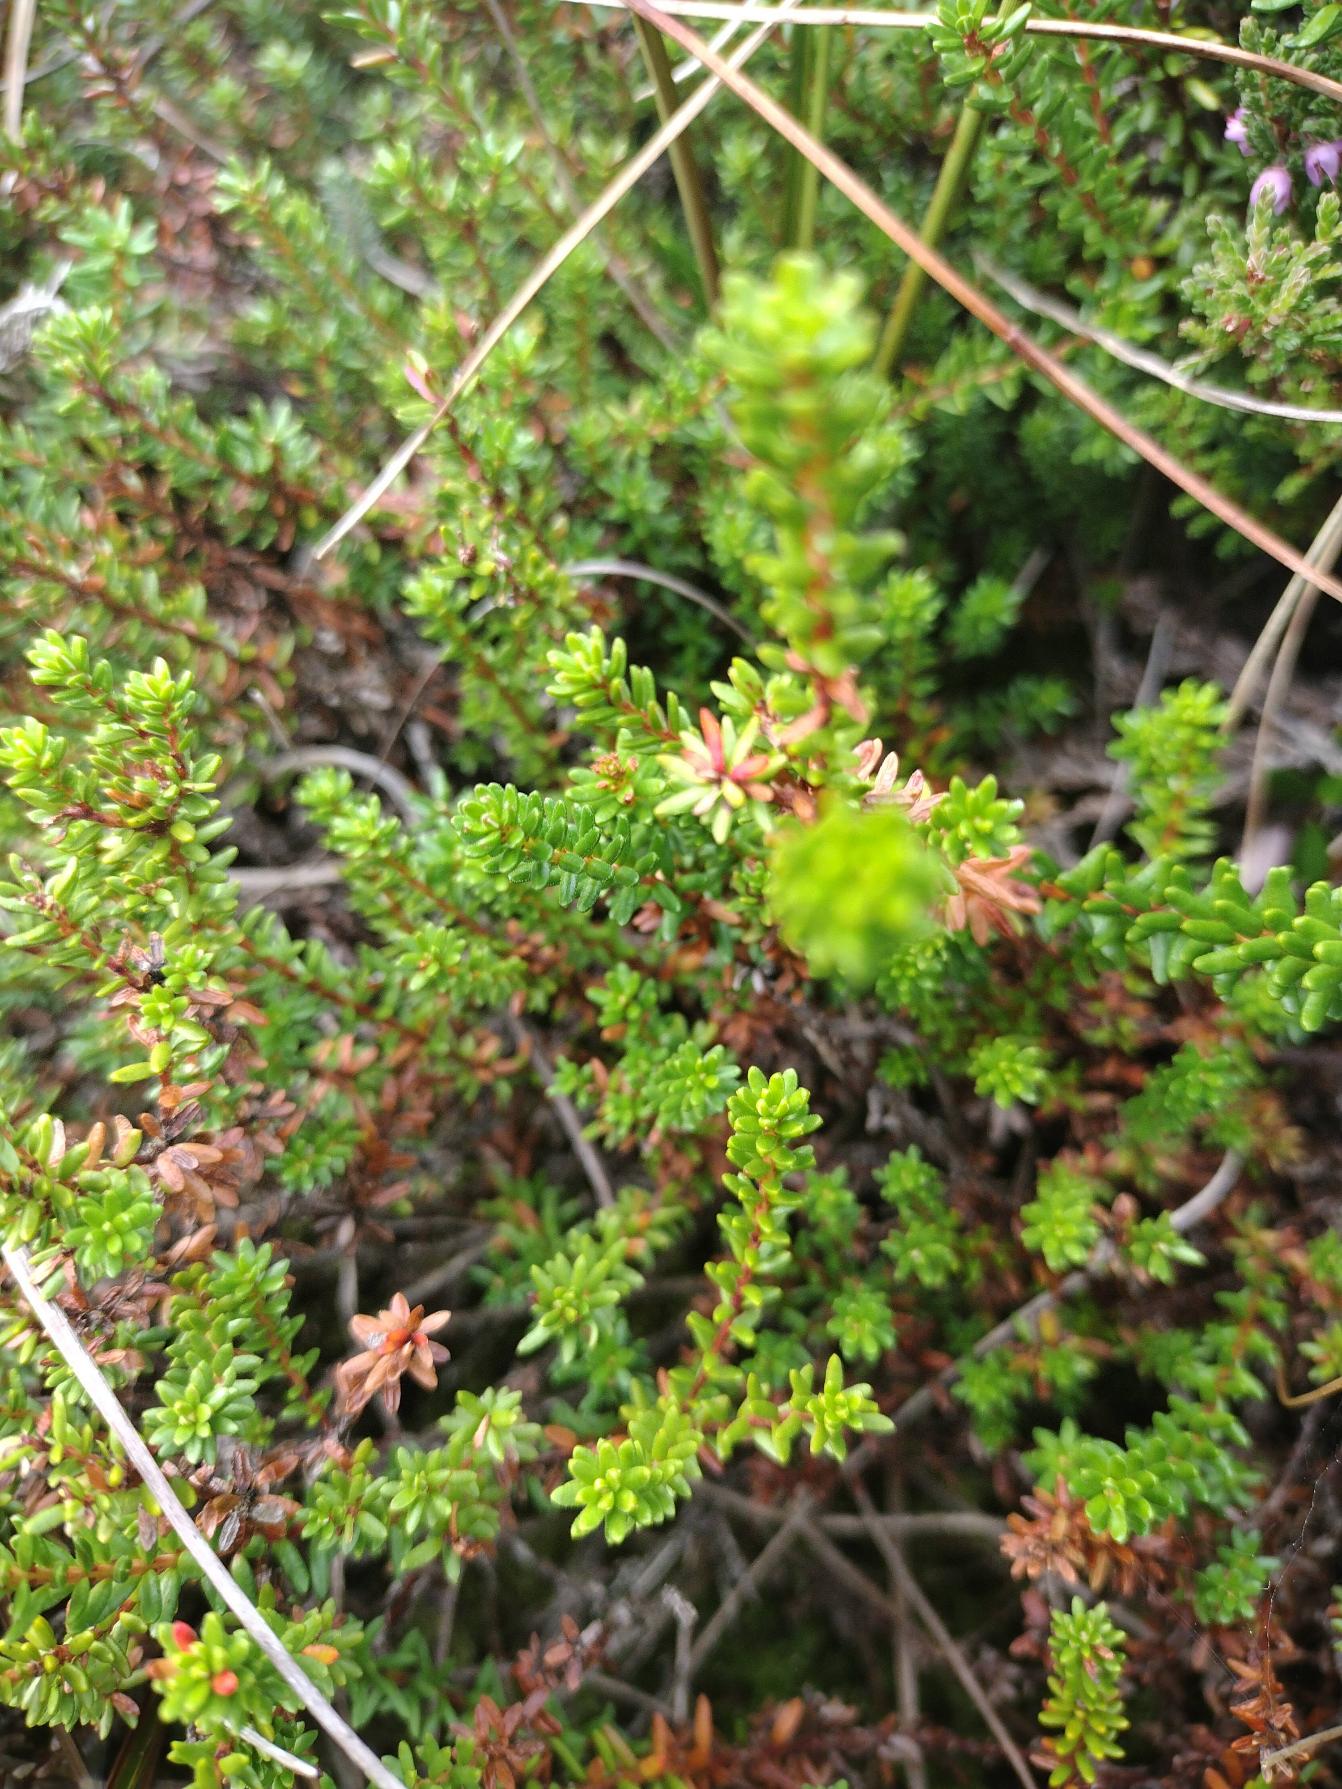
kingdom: Plantae
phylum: Tracheophyta
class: Magnoliopsida
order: Ericales
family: Ericaceae
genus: Empetrum
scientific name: Empetrum nigrum
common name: Revling
